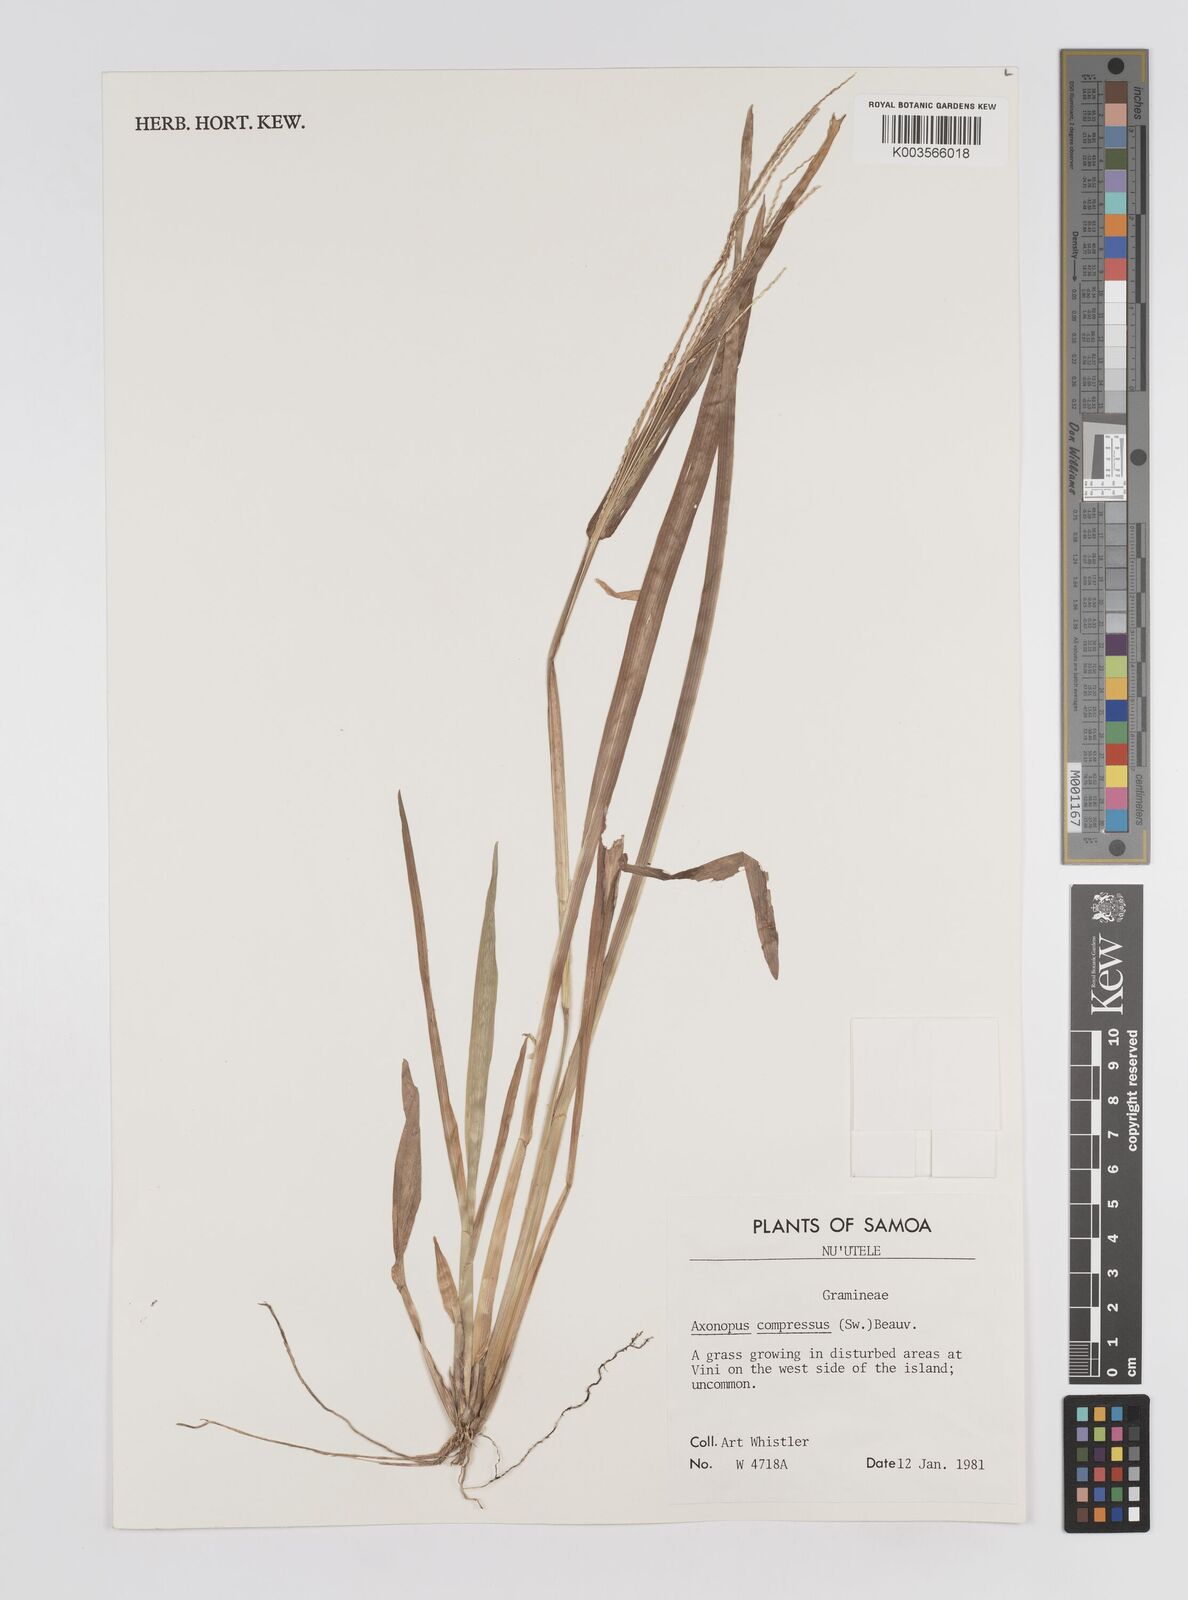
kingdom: Plantae
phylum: Tracheophyta
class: Liliopsida
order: Poales
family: Poaceae
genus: Axonopus
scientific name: Axonopus compressus
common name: American carpet grass
